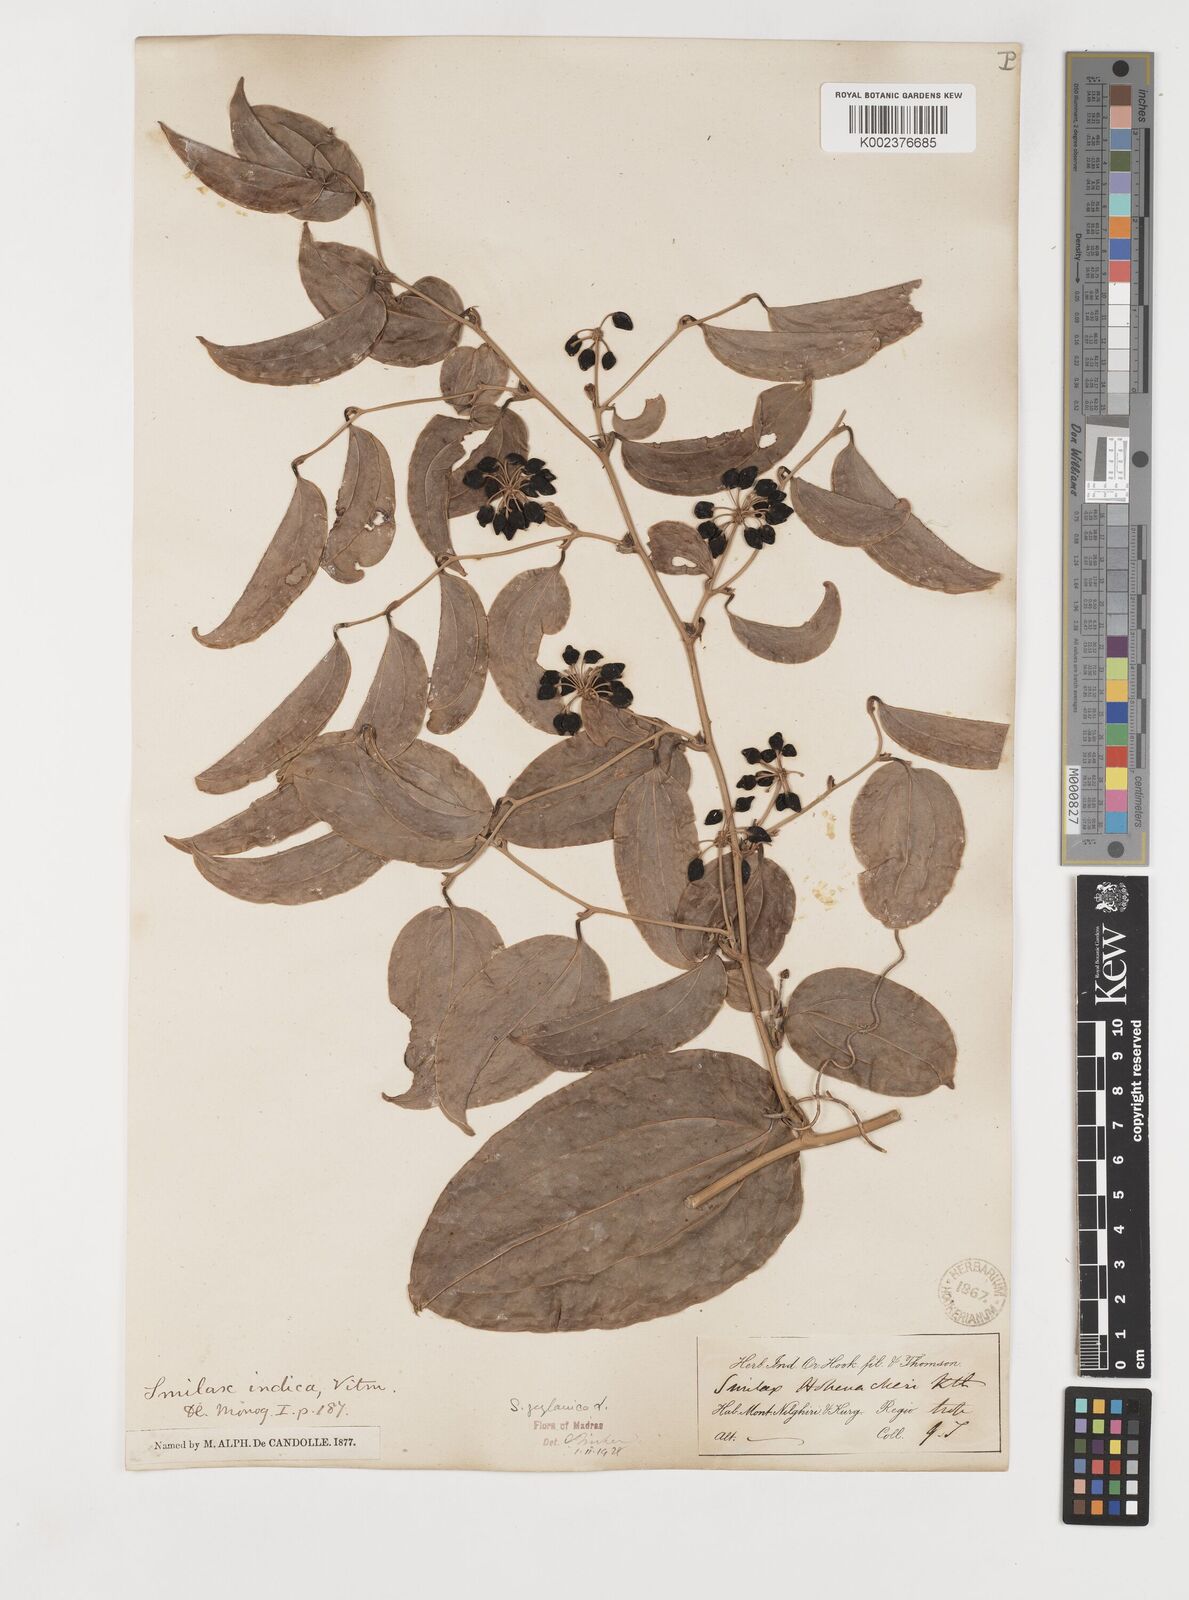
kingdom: Plantae
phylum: Tracheophyta
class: Liliopsida
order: Liliales
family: Smilacaceae
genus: Smilax
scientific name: Smilax zeylanica
